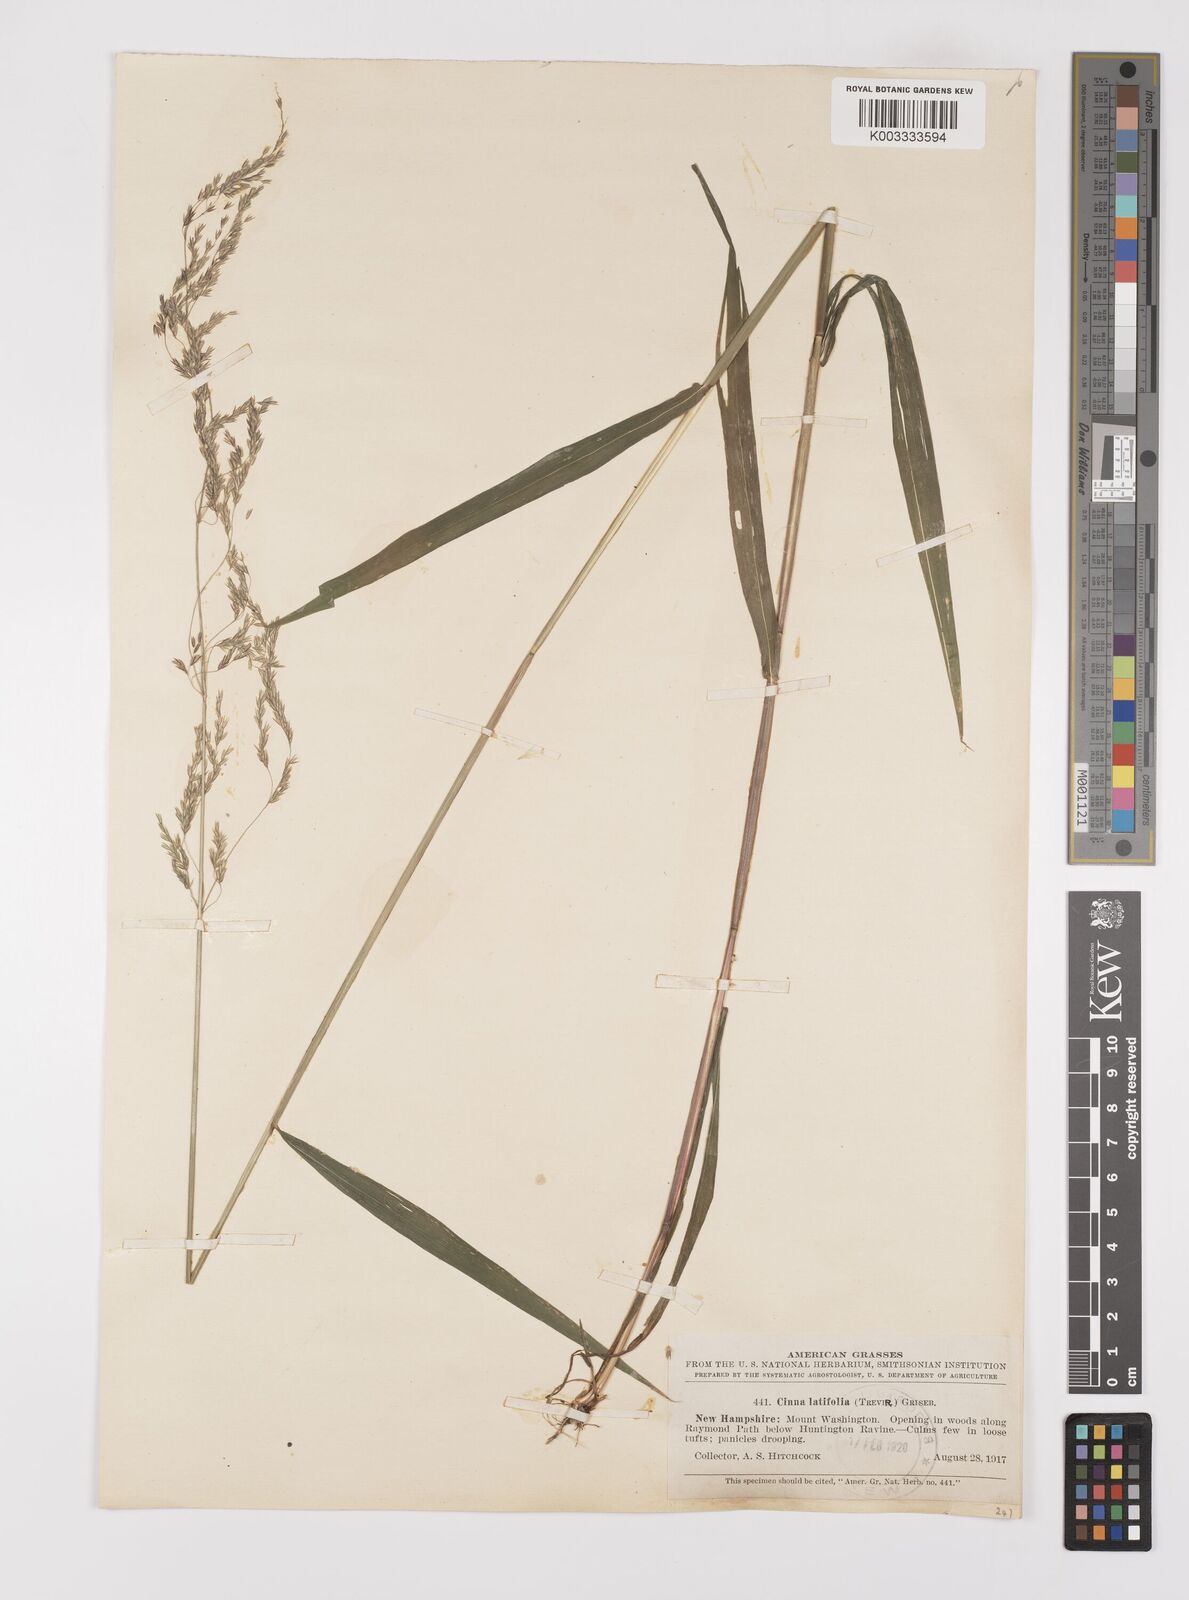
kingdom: Plantae
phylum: Tracheophyta
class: Liliopsida
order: Poales
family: Poaceae
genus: Cinna
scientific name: Cinna latifolia
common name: Drooping woodreed
